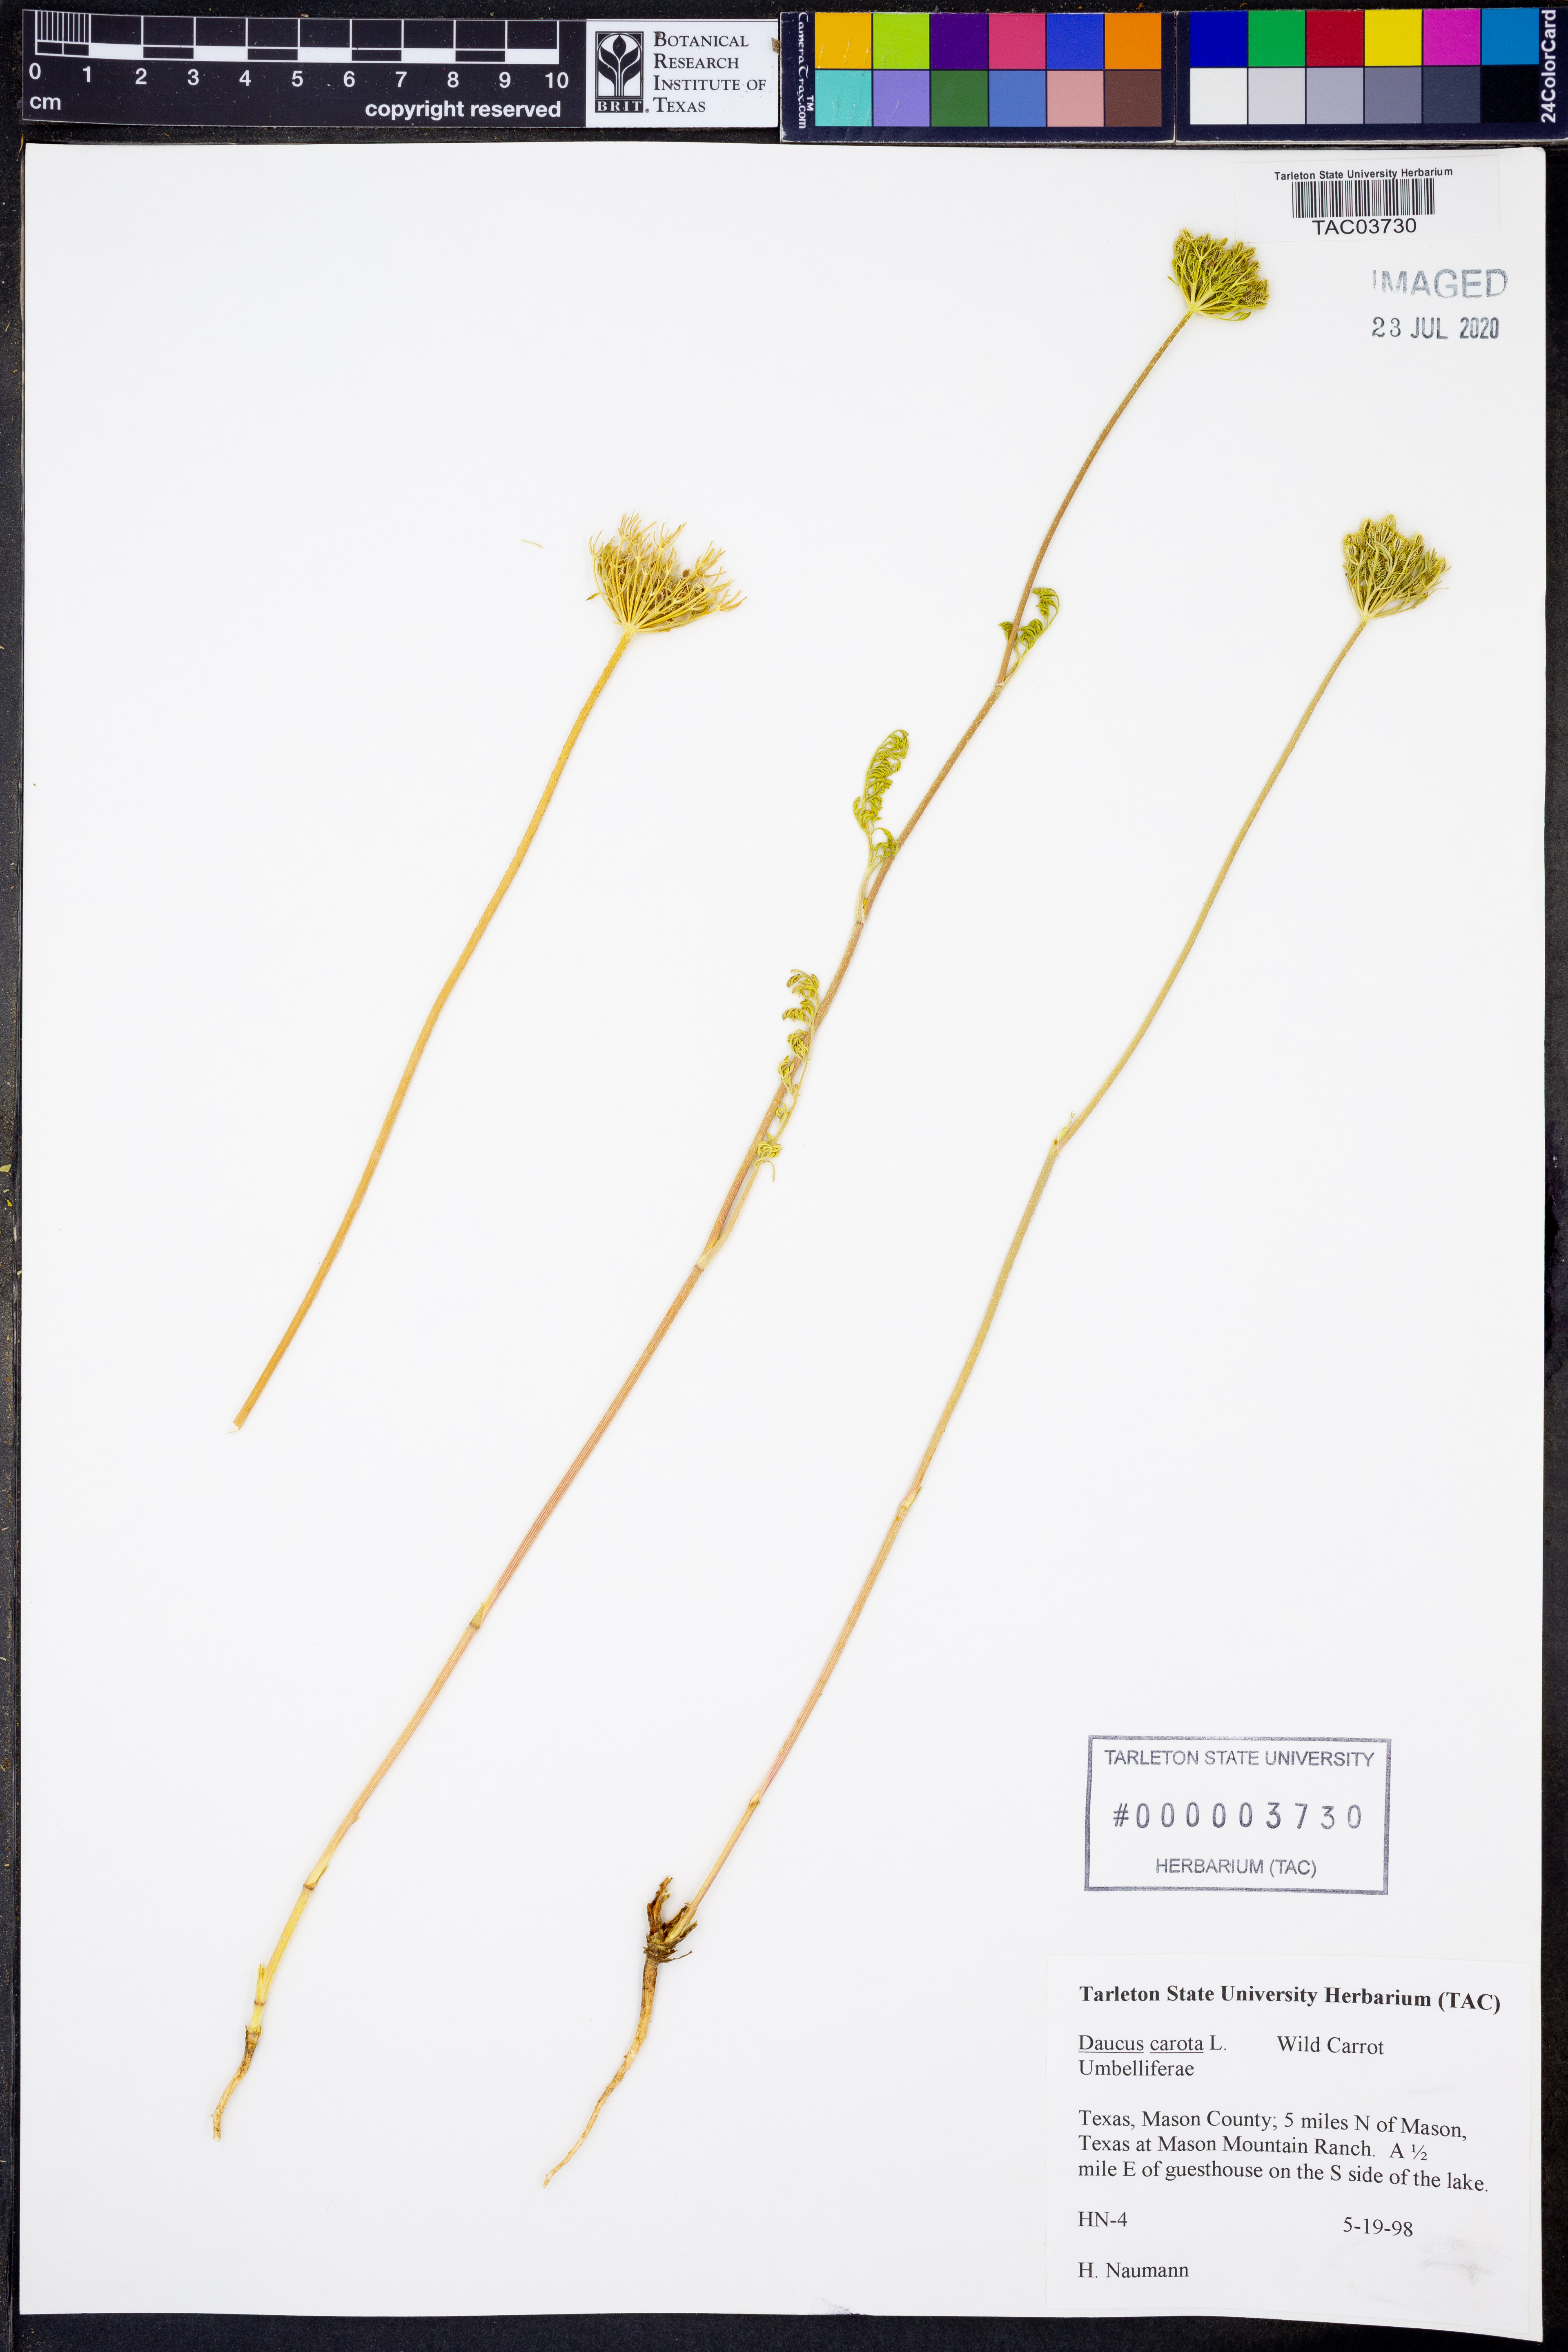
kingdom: Plantae
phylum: Tracheophyta
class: Magnoliopsida
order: Apiales
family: Apiaceae
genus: Daucus
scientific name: Daucus carota
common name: Wild carrot
